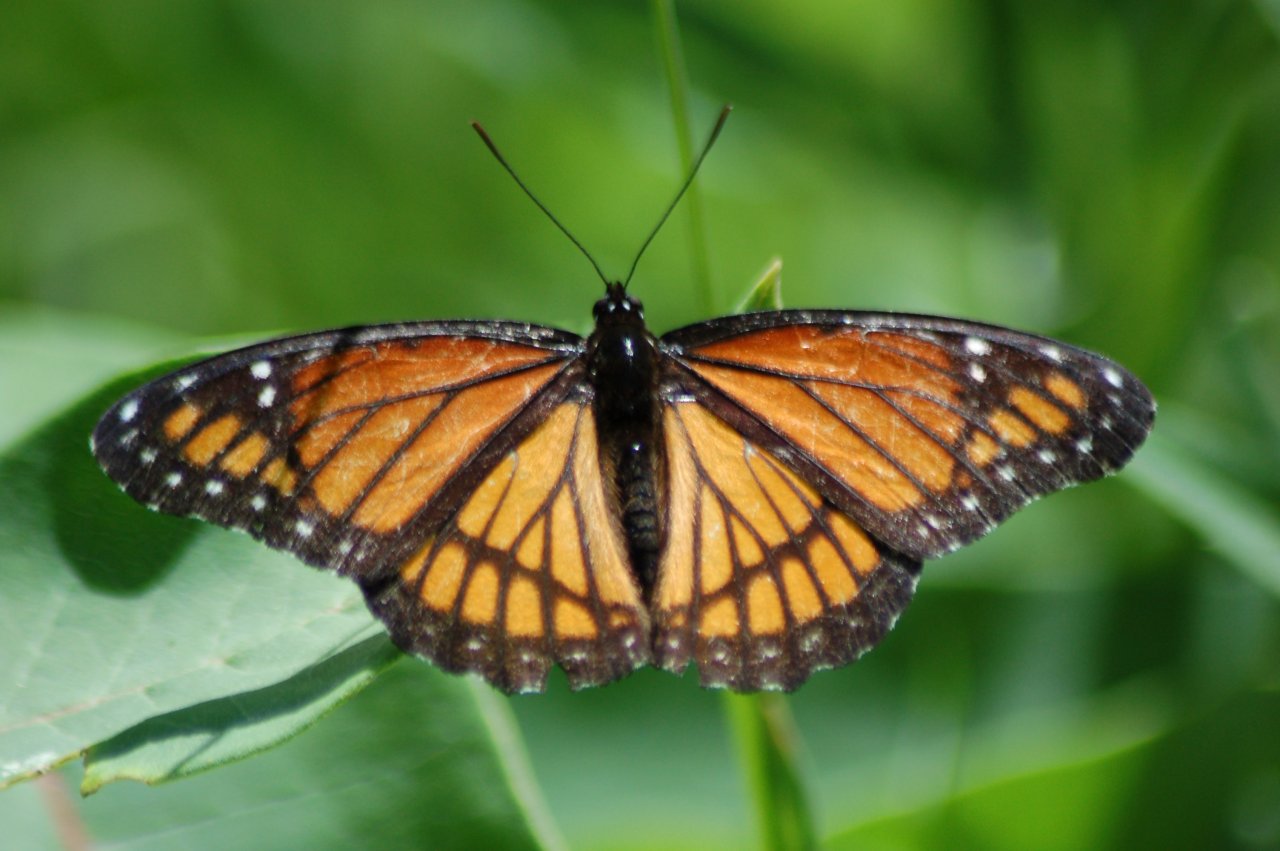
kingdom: Animalia
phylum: Arthropoda
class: Insecta
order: Lepidoptera
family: Nymphalidae
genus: Limenitis
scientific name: Limenitis archippus
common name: Viceroy
